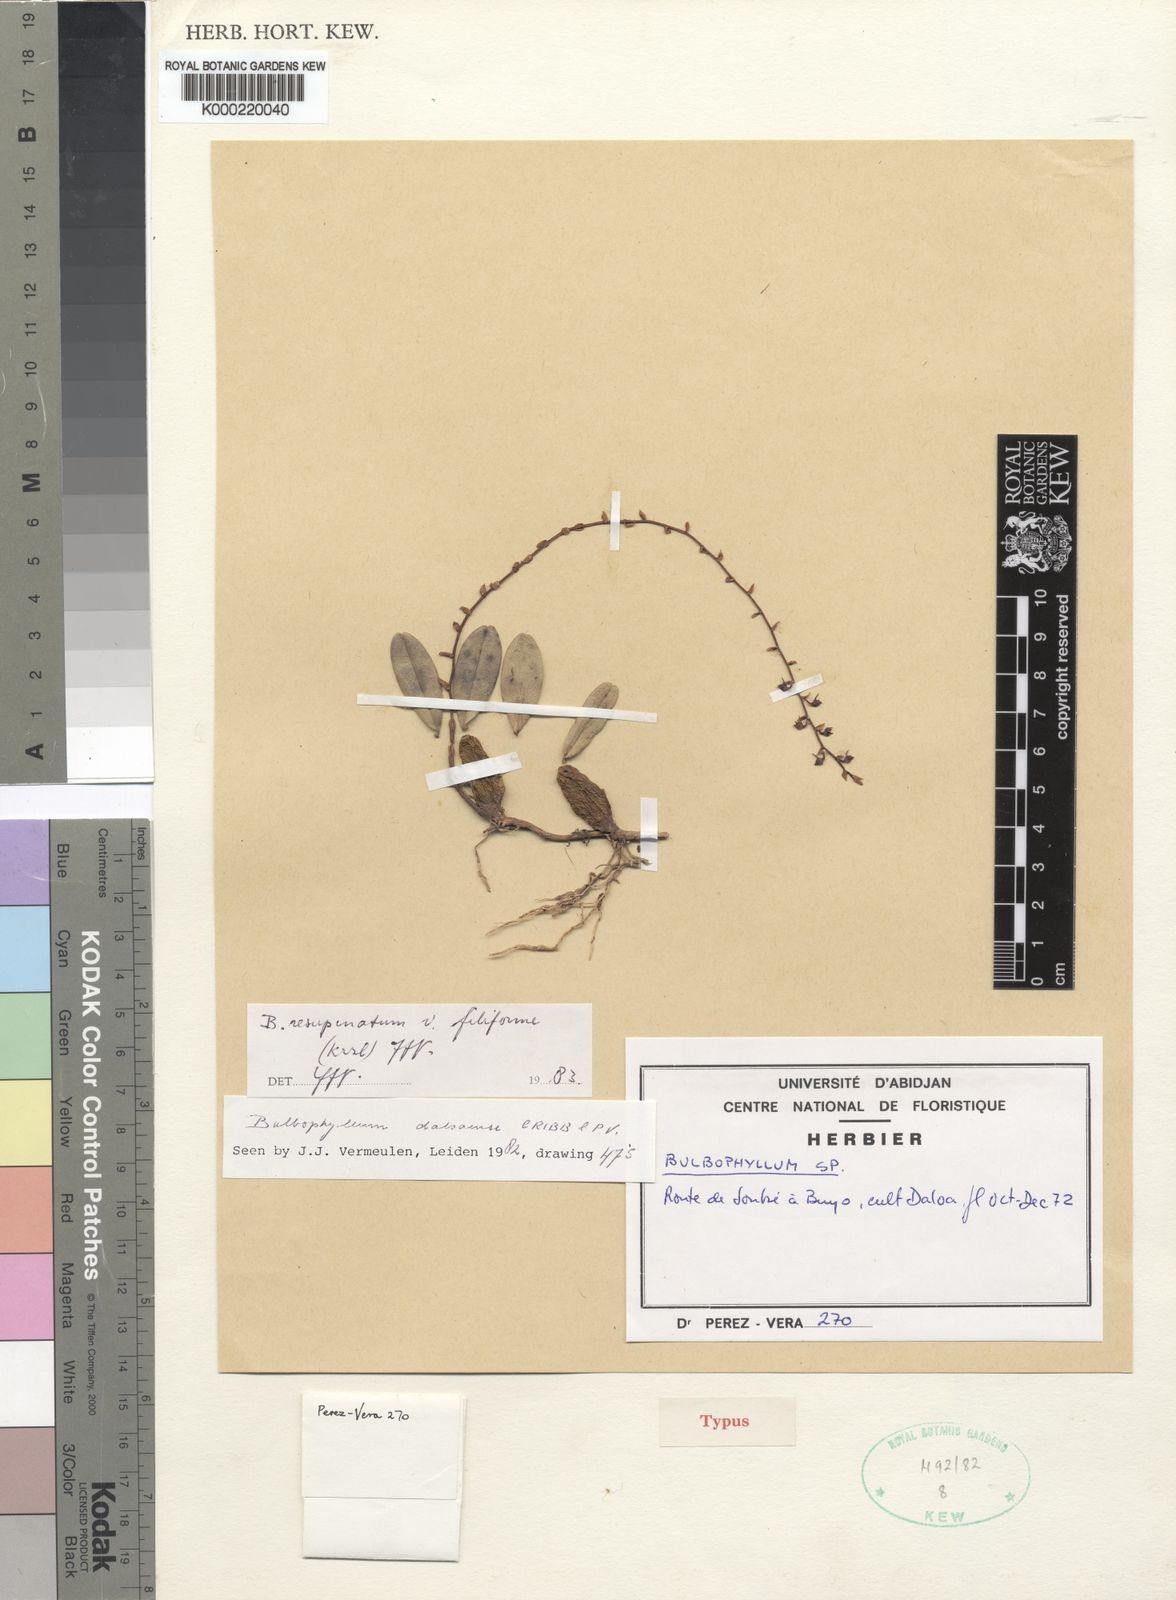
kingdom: Plantae
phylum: Tracheophyta
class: Liliopsida
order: Asparagales
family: Orchidaceae
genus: Bulbophyllum
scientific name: Bulbophyllum resupinatum
